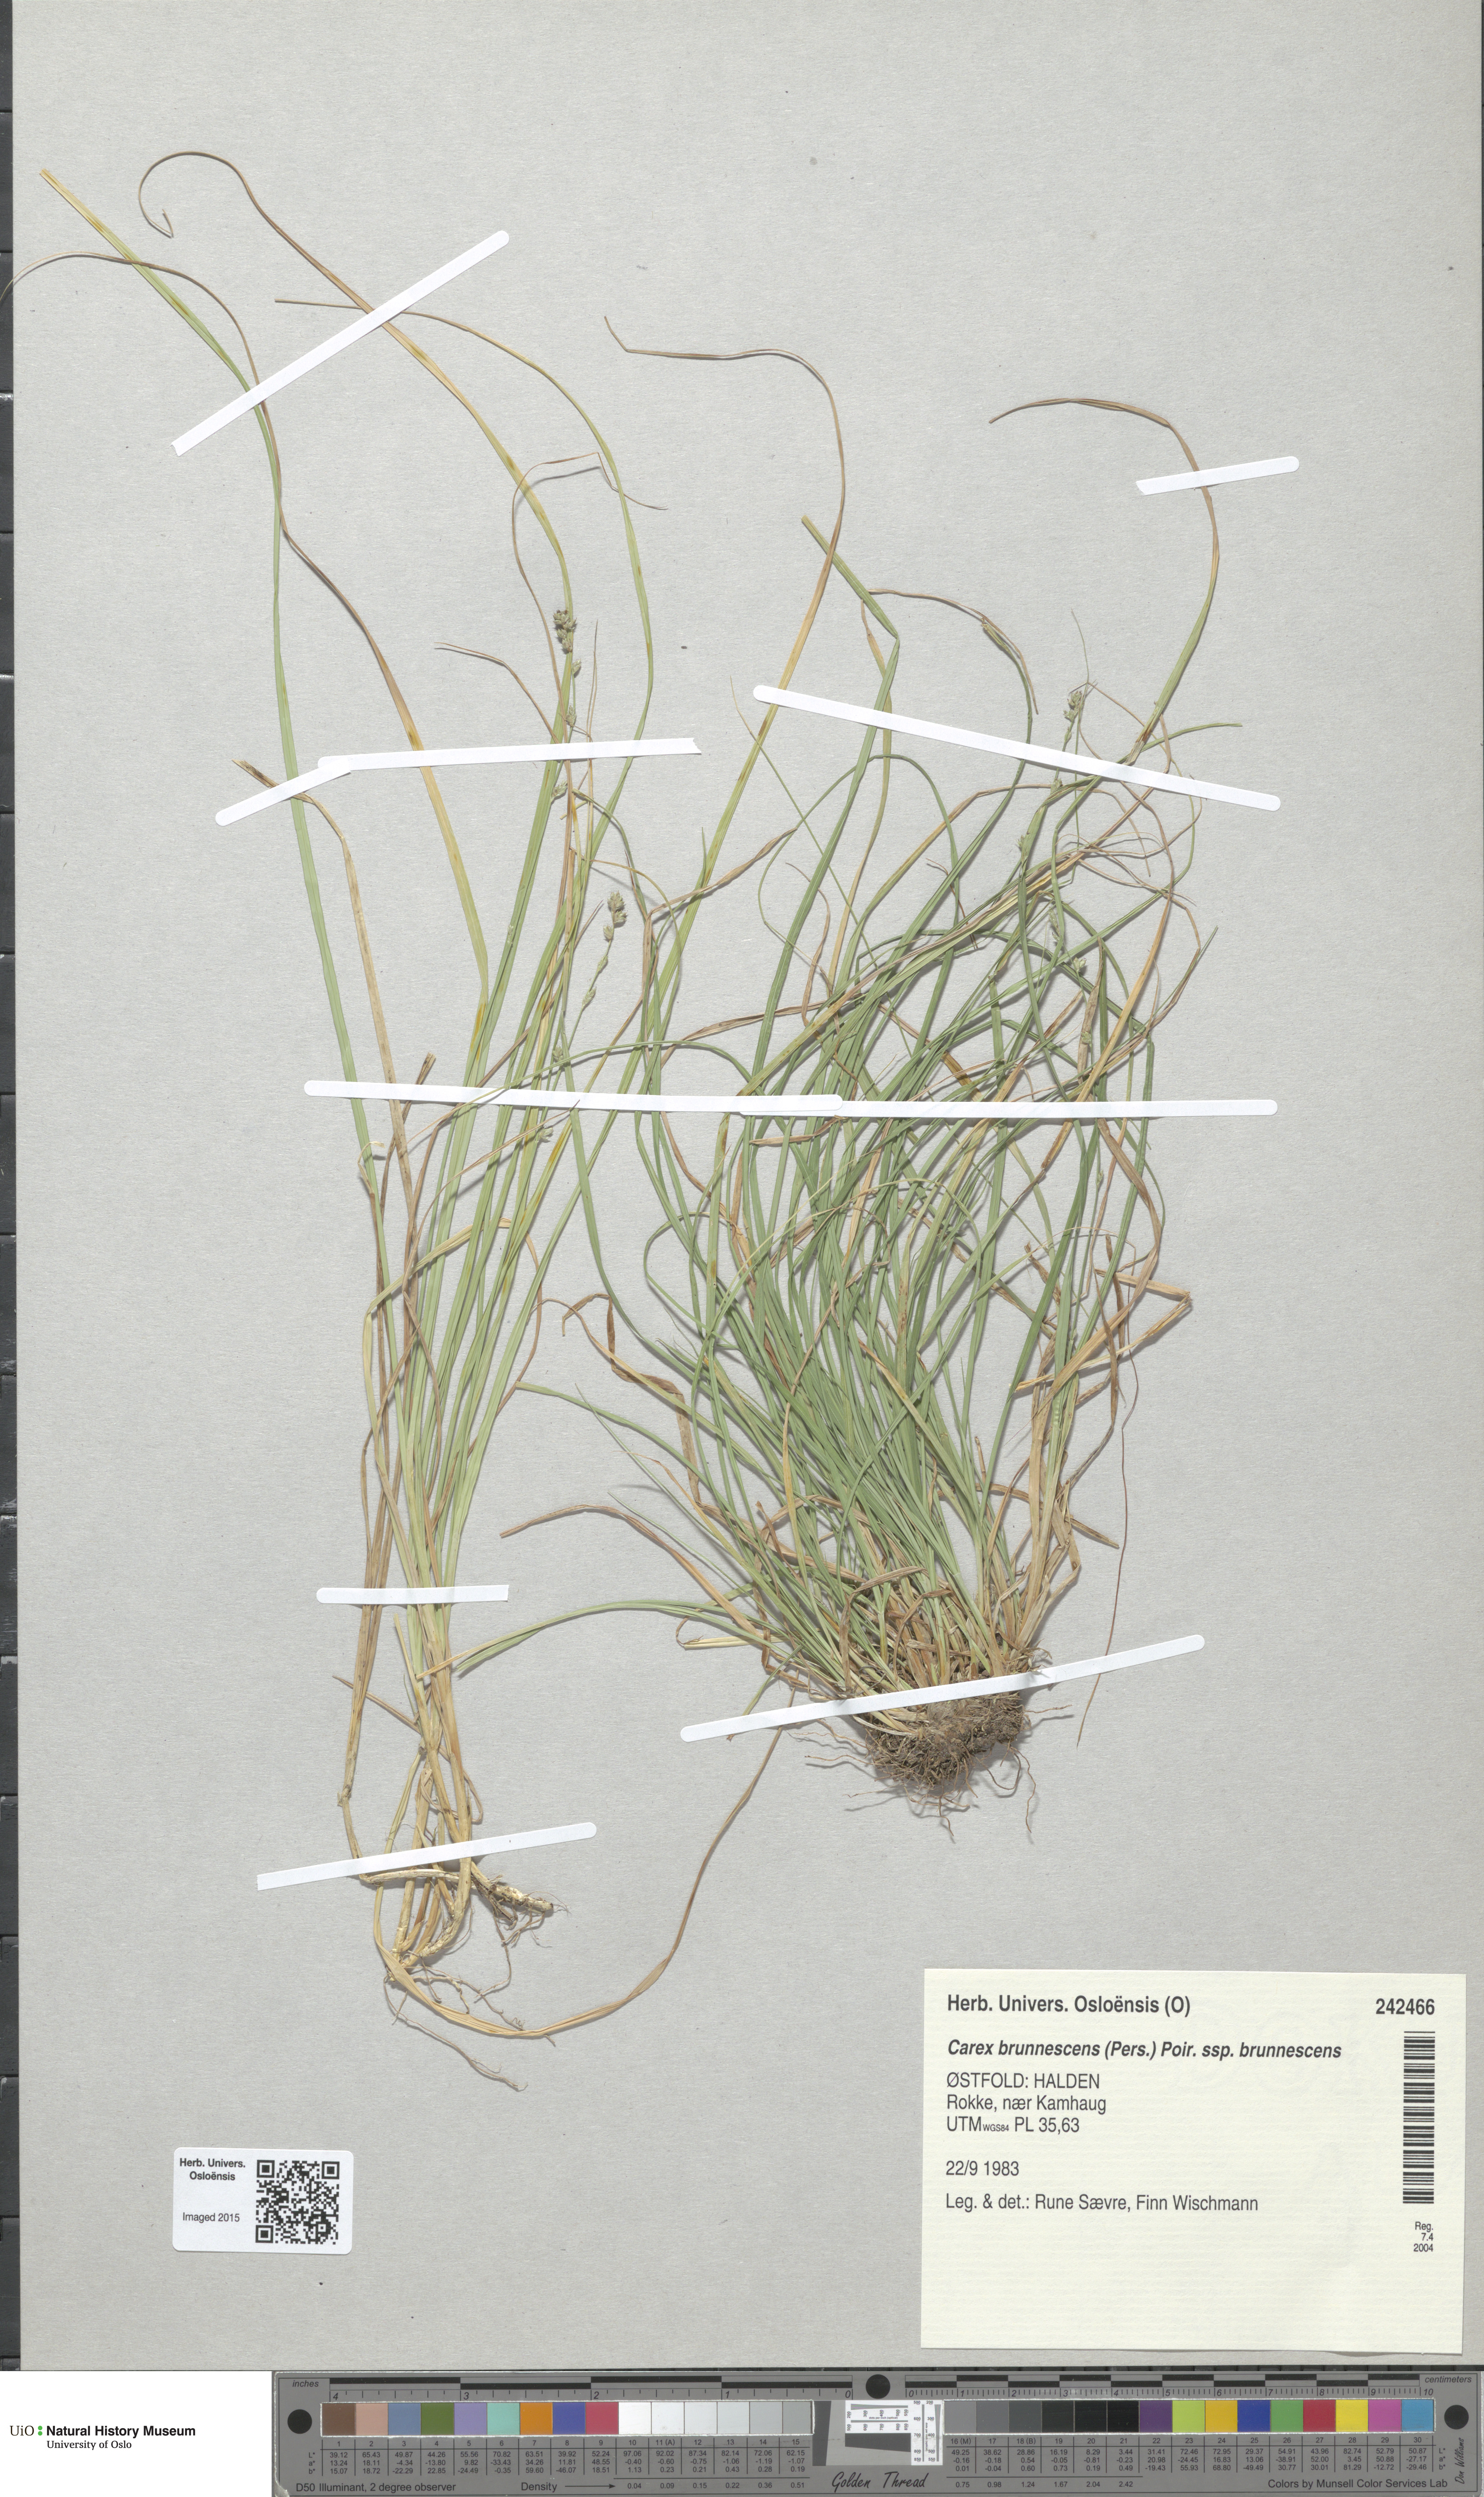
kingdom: Plantae
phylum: Tracheophyta
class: Liliopsida
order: Poales
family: Cyperaceae
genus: Carex
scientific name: Carex brunnescens
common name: Brown sedge
